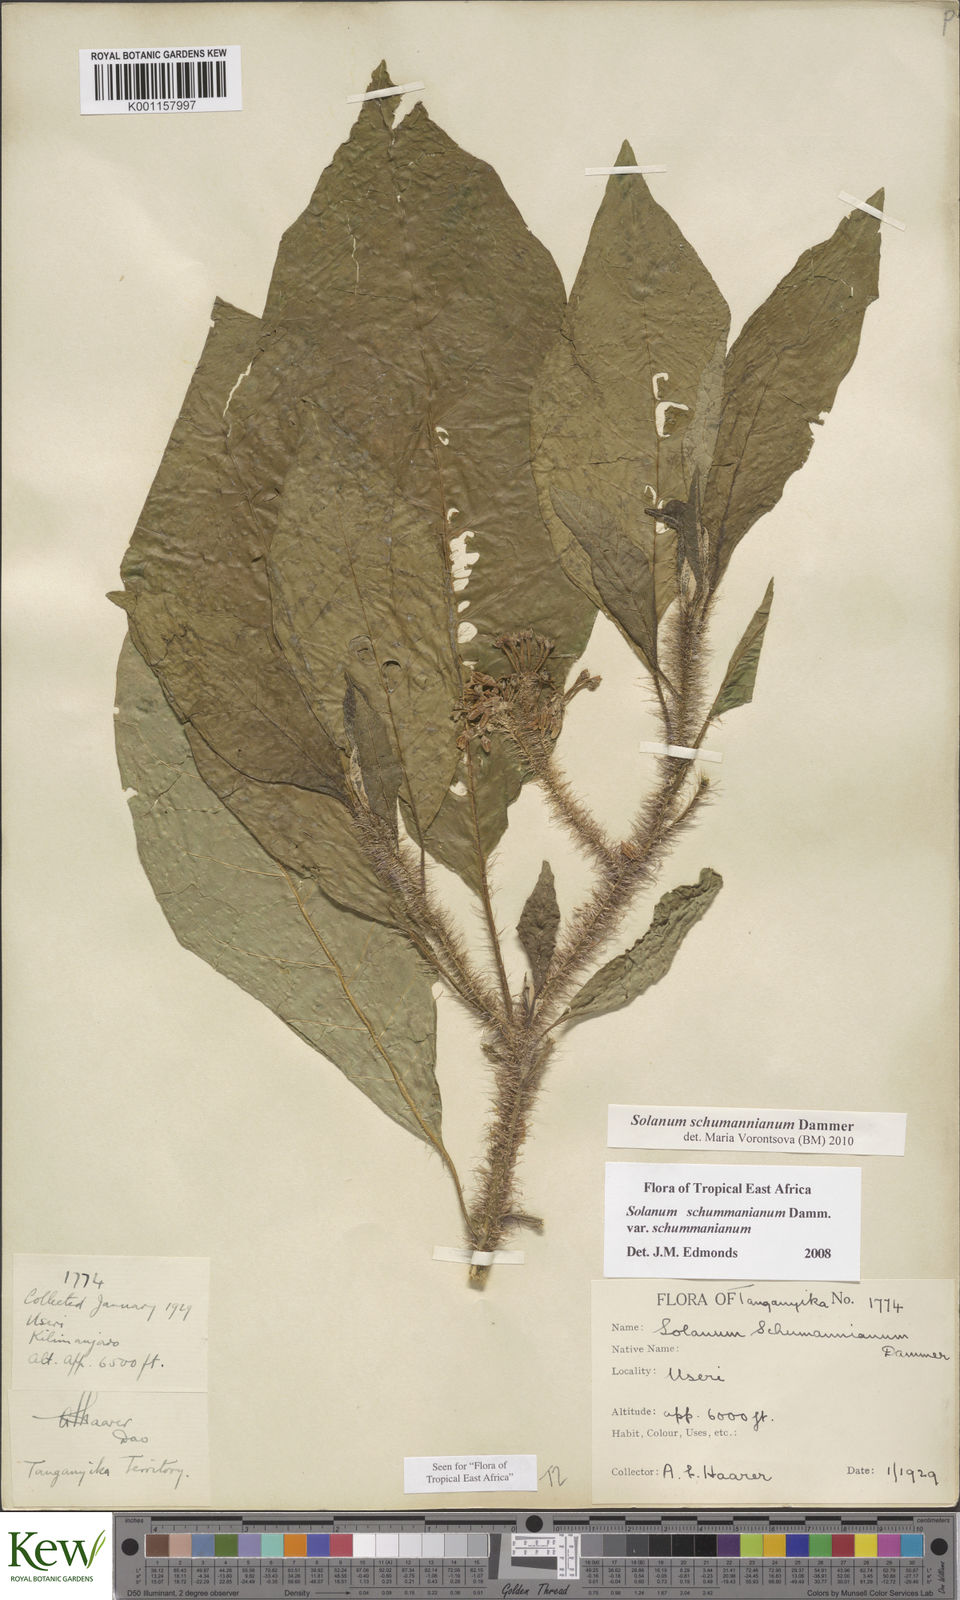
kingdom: Plantae
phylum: Tracheophyta
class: Magnoliopsida
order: Solanales
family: Solanaceae
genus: Solanum
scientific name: Solanum schumannianum
